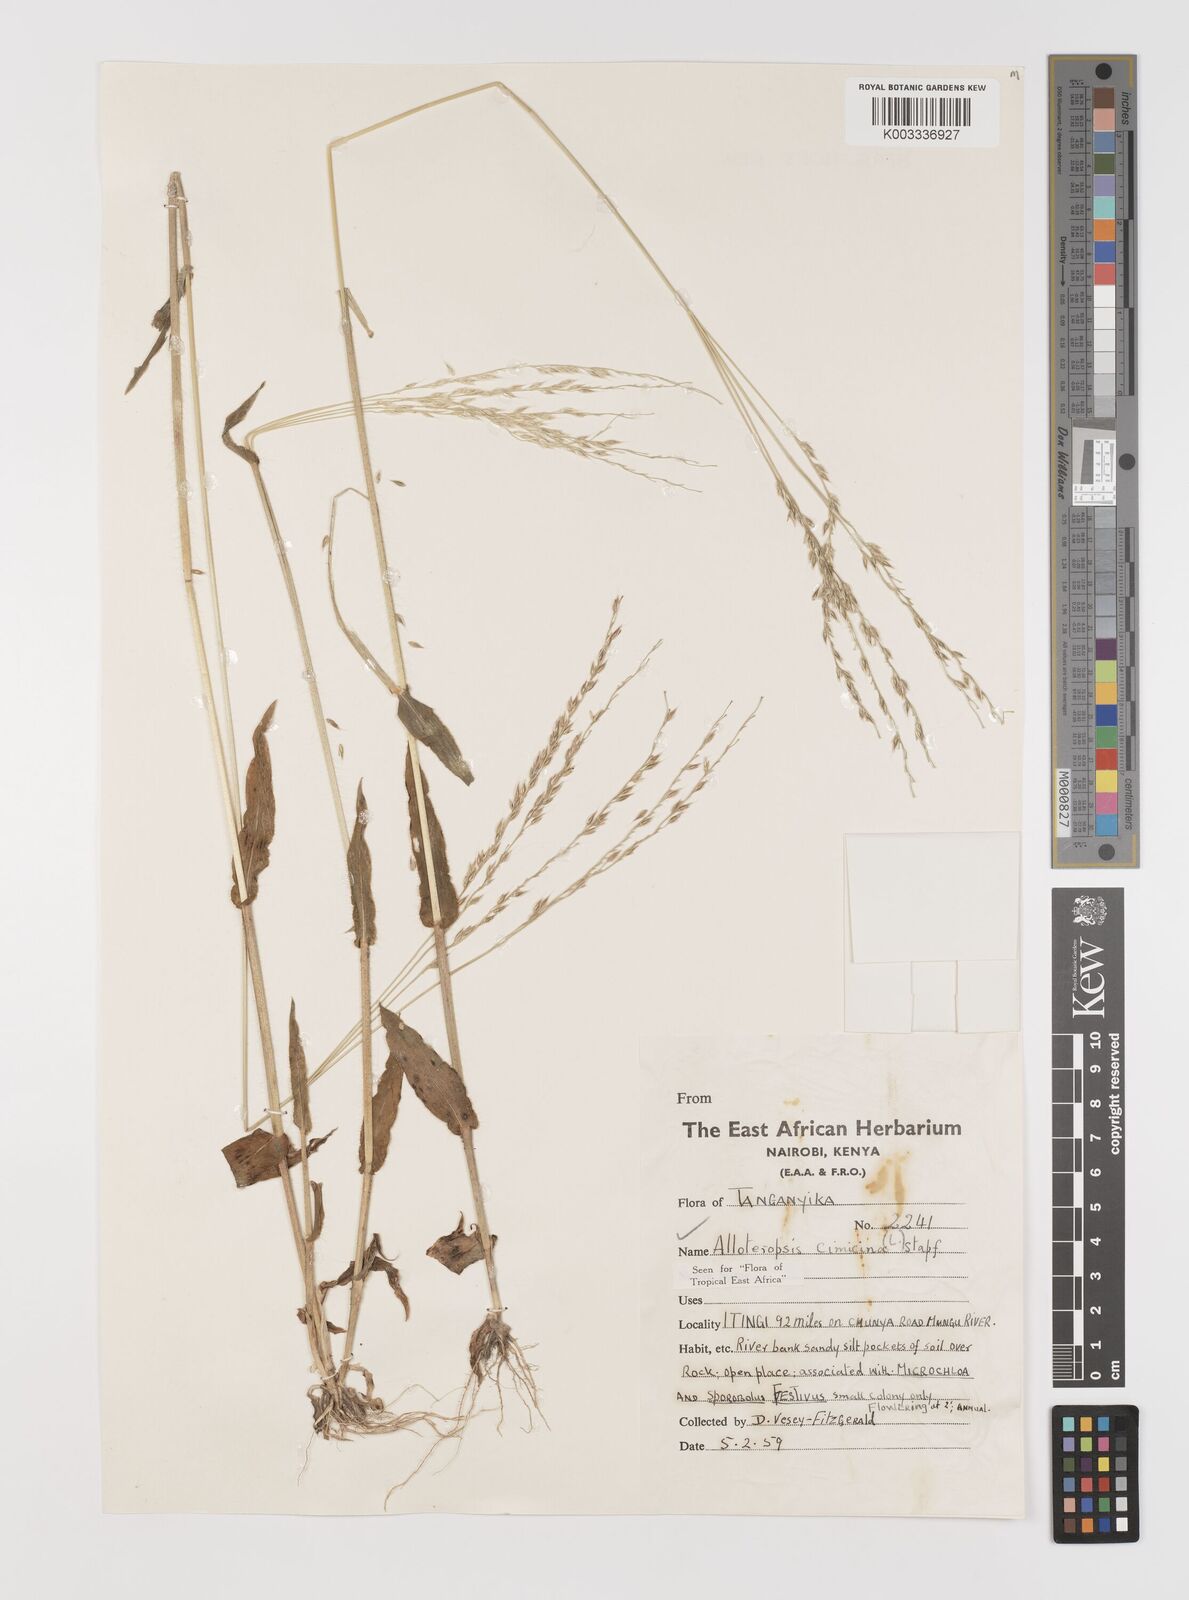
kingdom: Plantae
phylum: Tracheophyta
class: Liliopsida
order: Poales
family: Poaceae
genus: Alloteropsis
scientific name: Alloteropsis cimicina
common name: Summergrass
